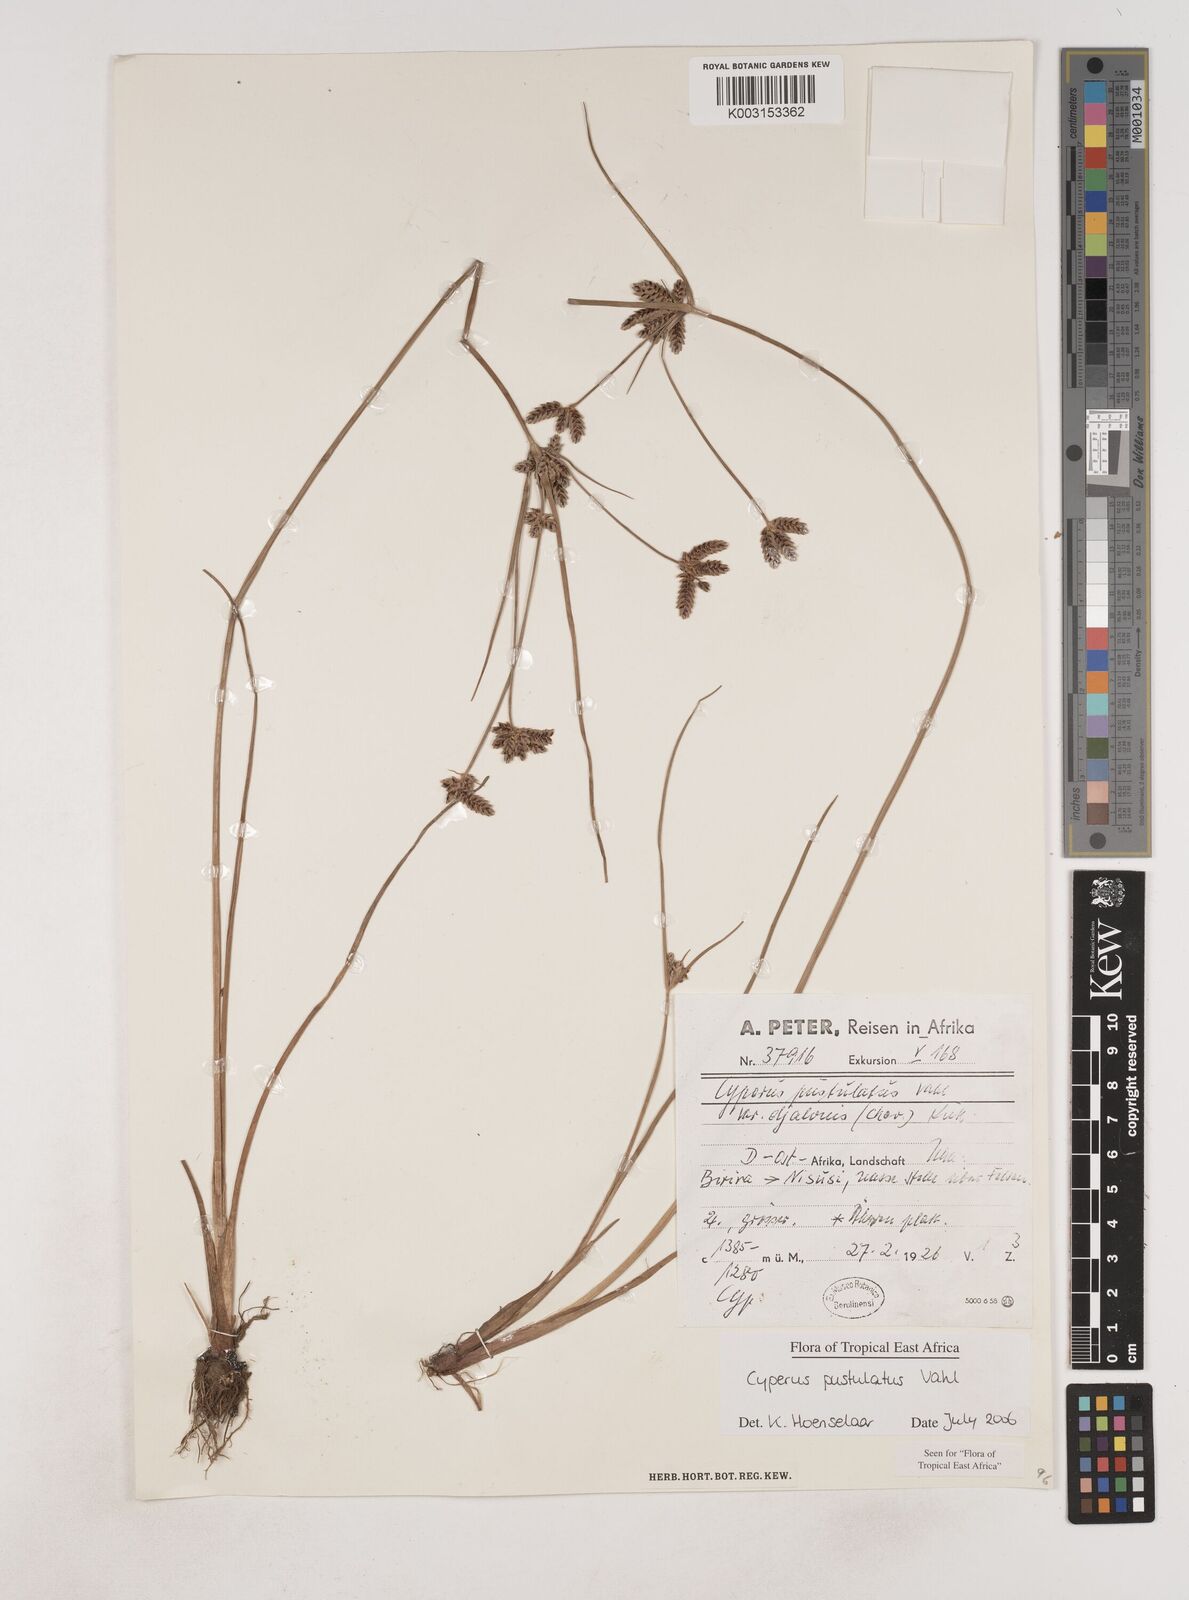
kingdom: Plantae
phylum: Tracheophyta
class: Liliopsida
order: Poales
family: Cyperaceae
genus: Cyperus
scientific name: Cyperus pustulatus
